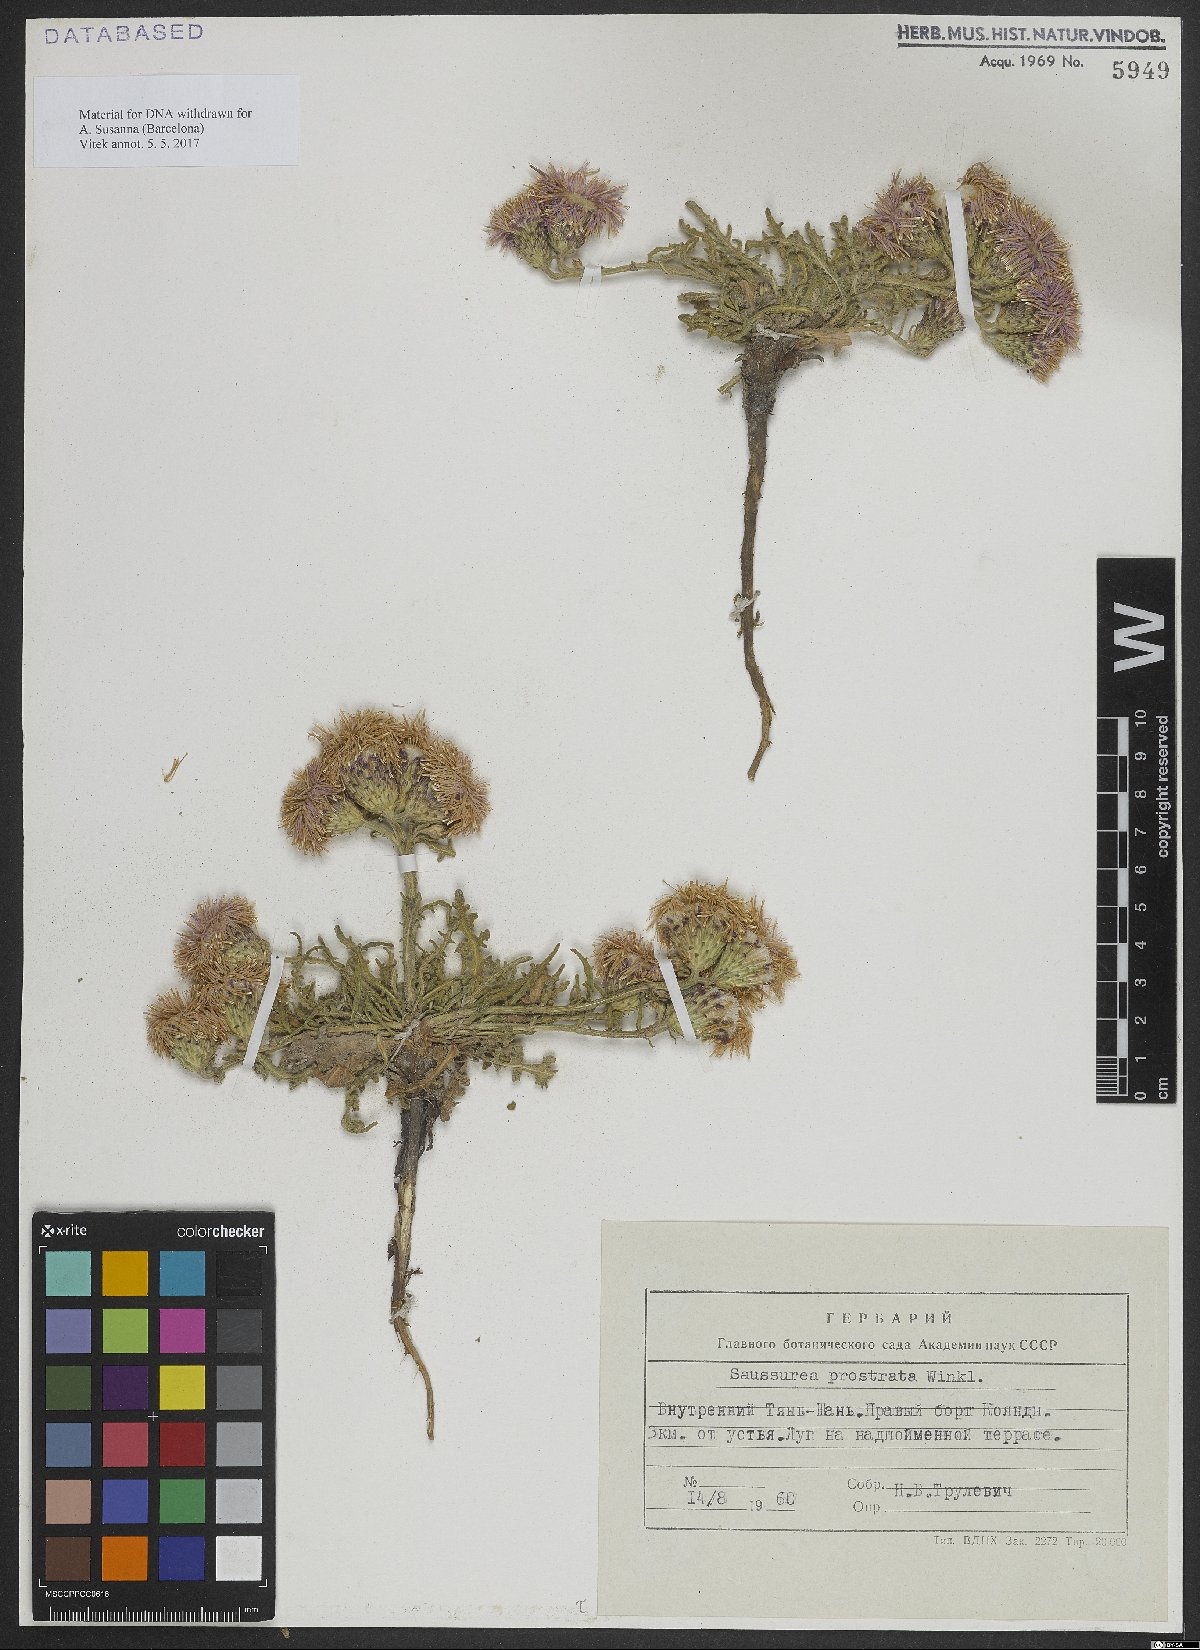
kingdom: Plantae
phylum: Tracheophyta
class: Magnoliopsida
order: Asterales
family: Asteraceae
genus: Saussurea
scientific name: Saussurea prostrata
